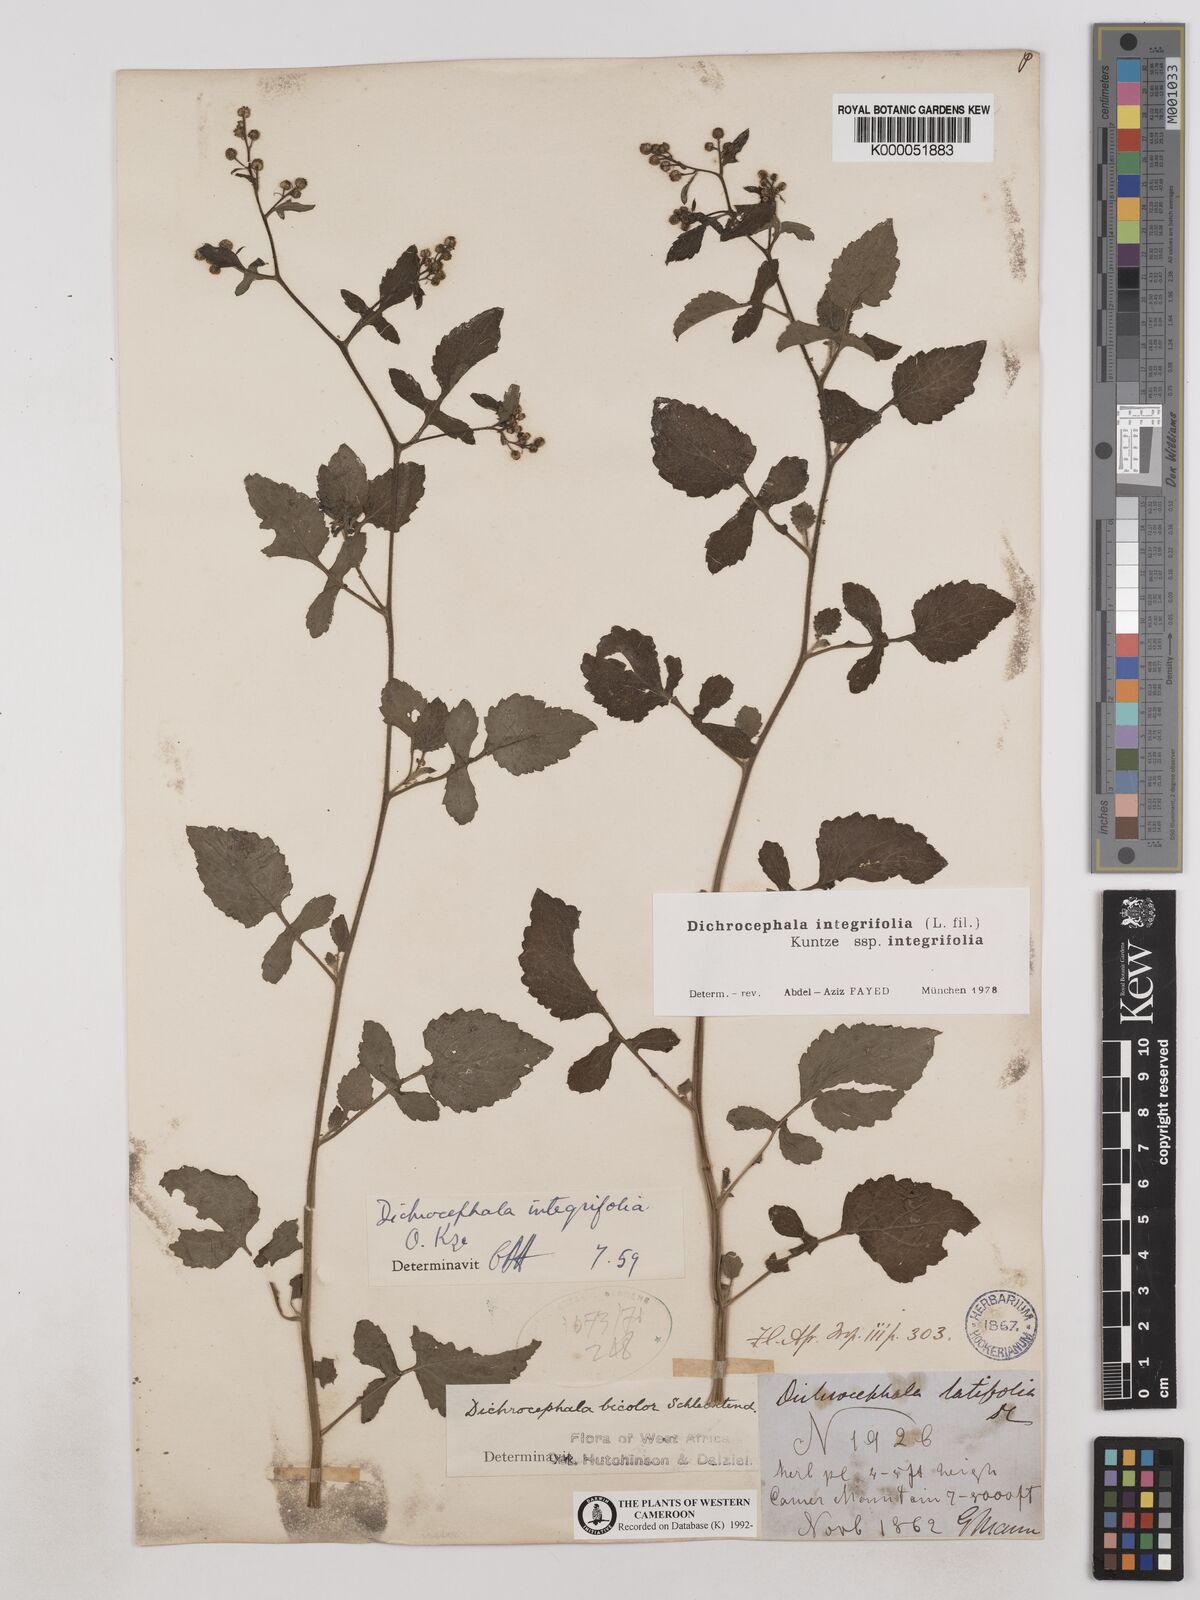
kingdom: Plantae
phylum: Tracheophyta
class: Magnoliopsida
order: Asterales
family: Asteraceae
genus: Dichrocephala
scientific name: Dichrocephala integrifolia
